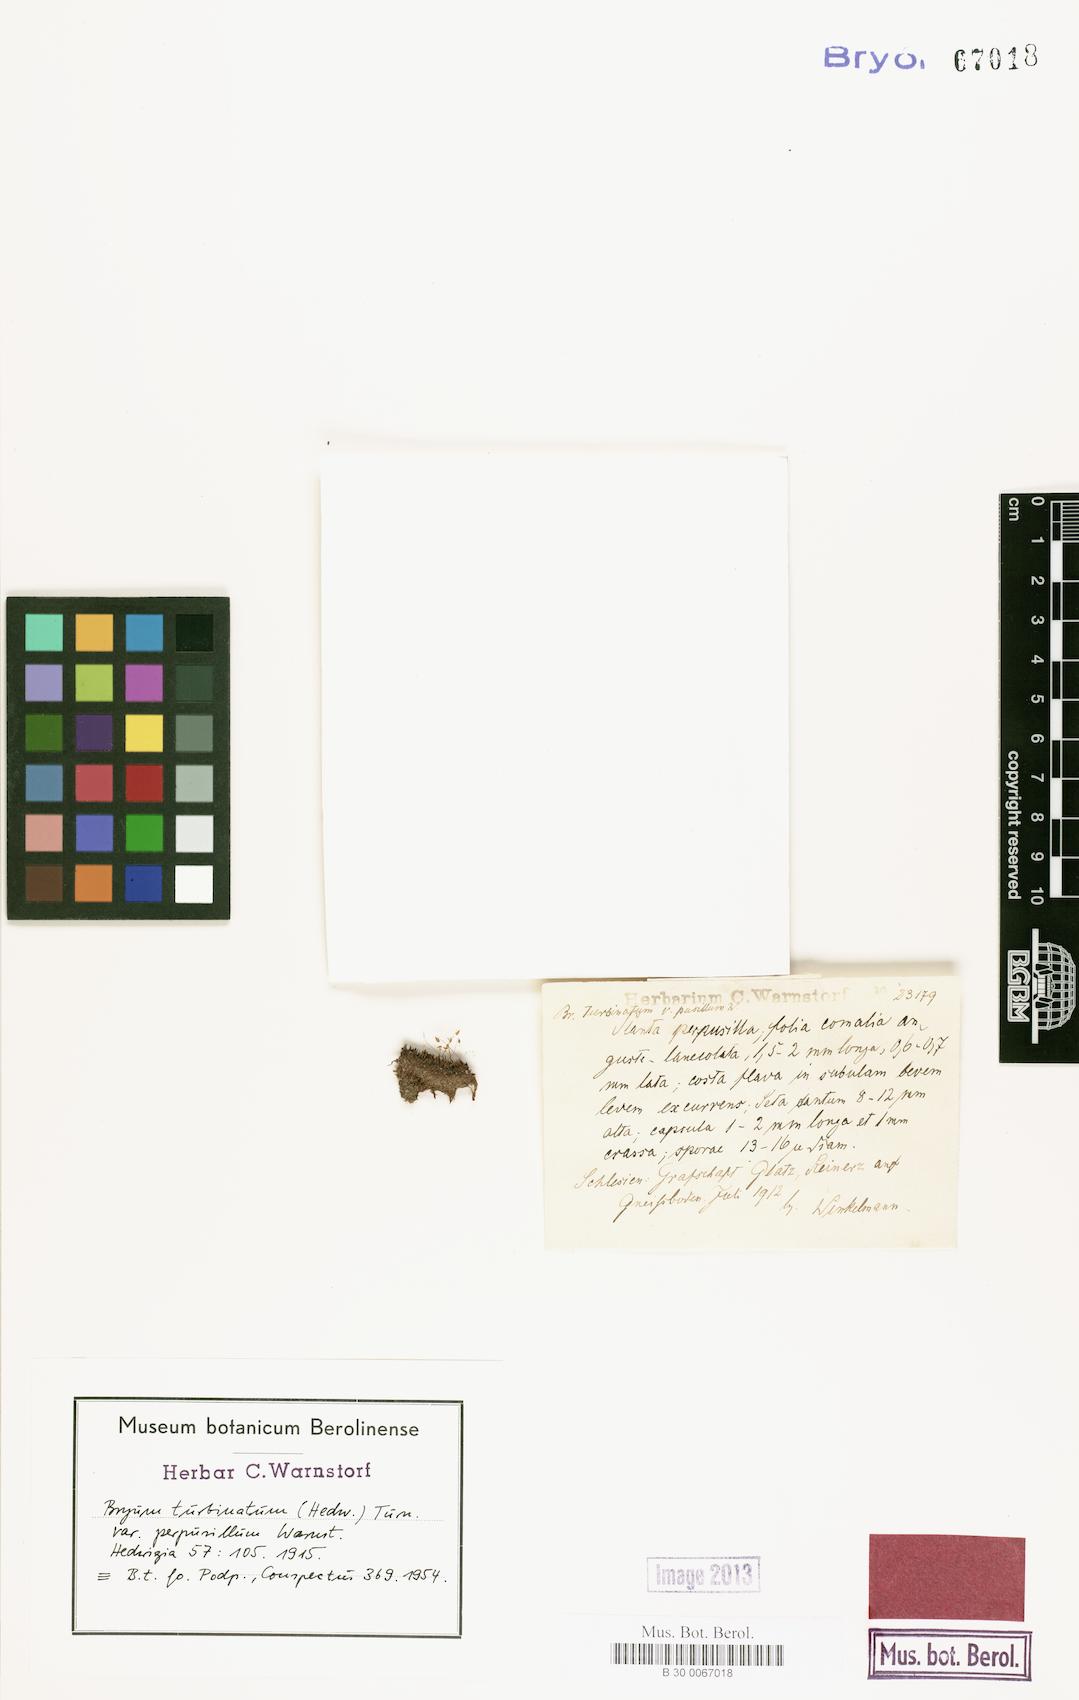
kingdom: Plantae
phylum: Bryophyta
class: Bryopsida
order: Bryales
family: Bryaceae
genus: Ptychostomum
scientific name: Ptychostomum turbinatum
